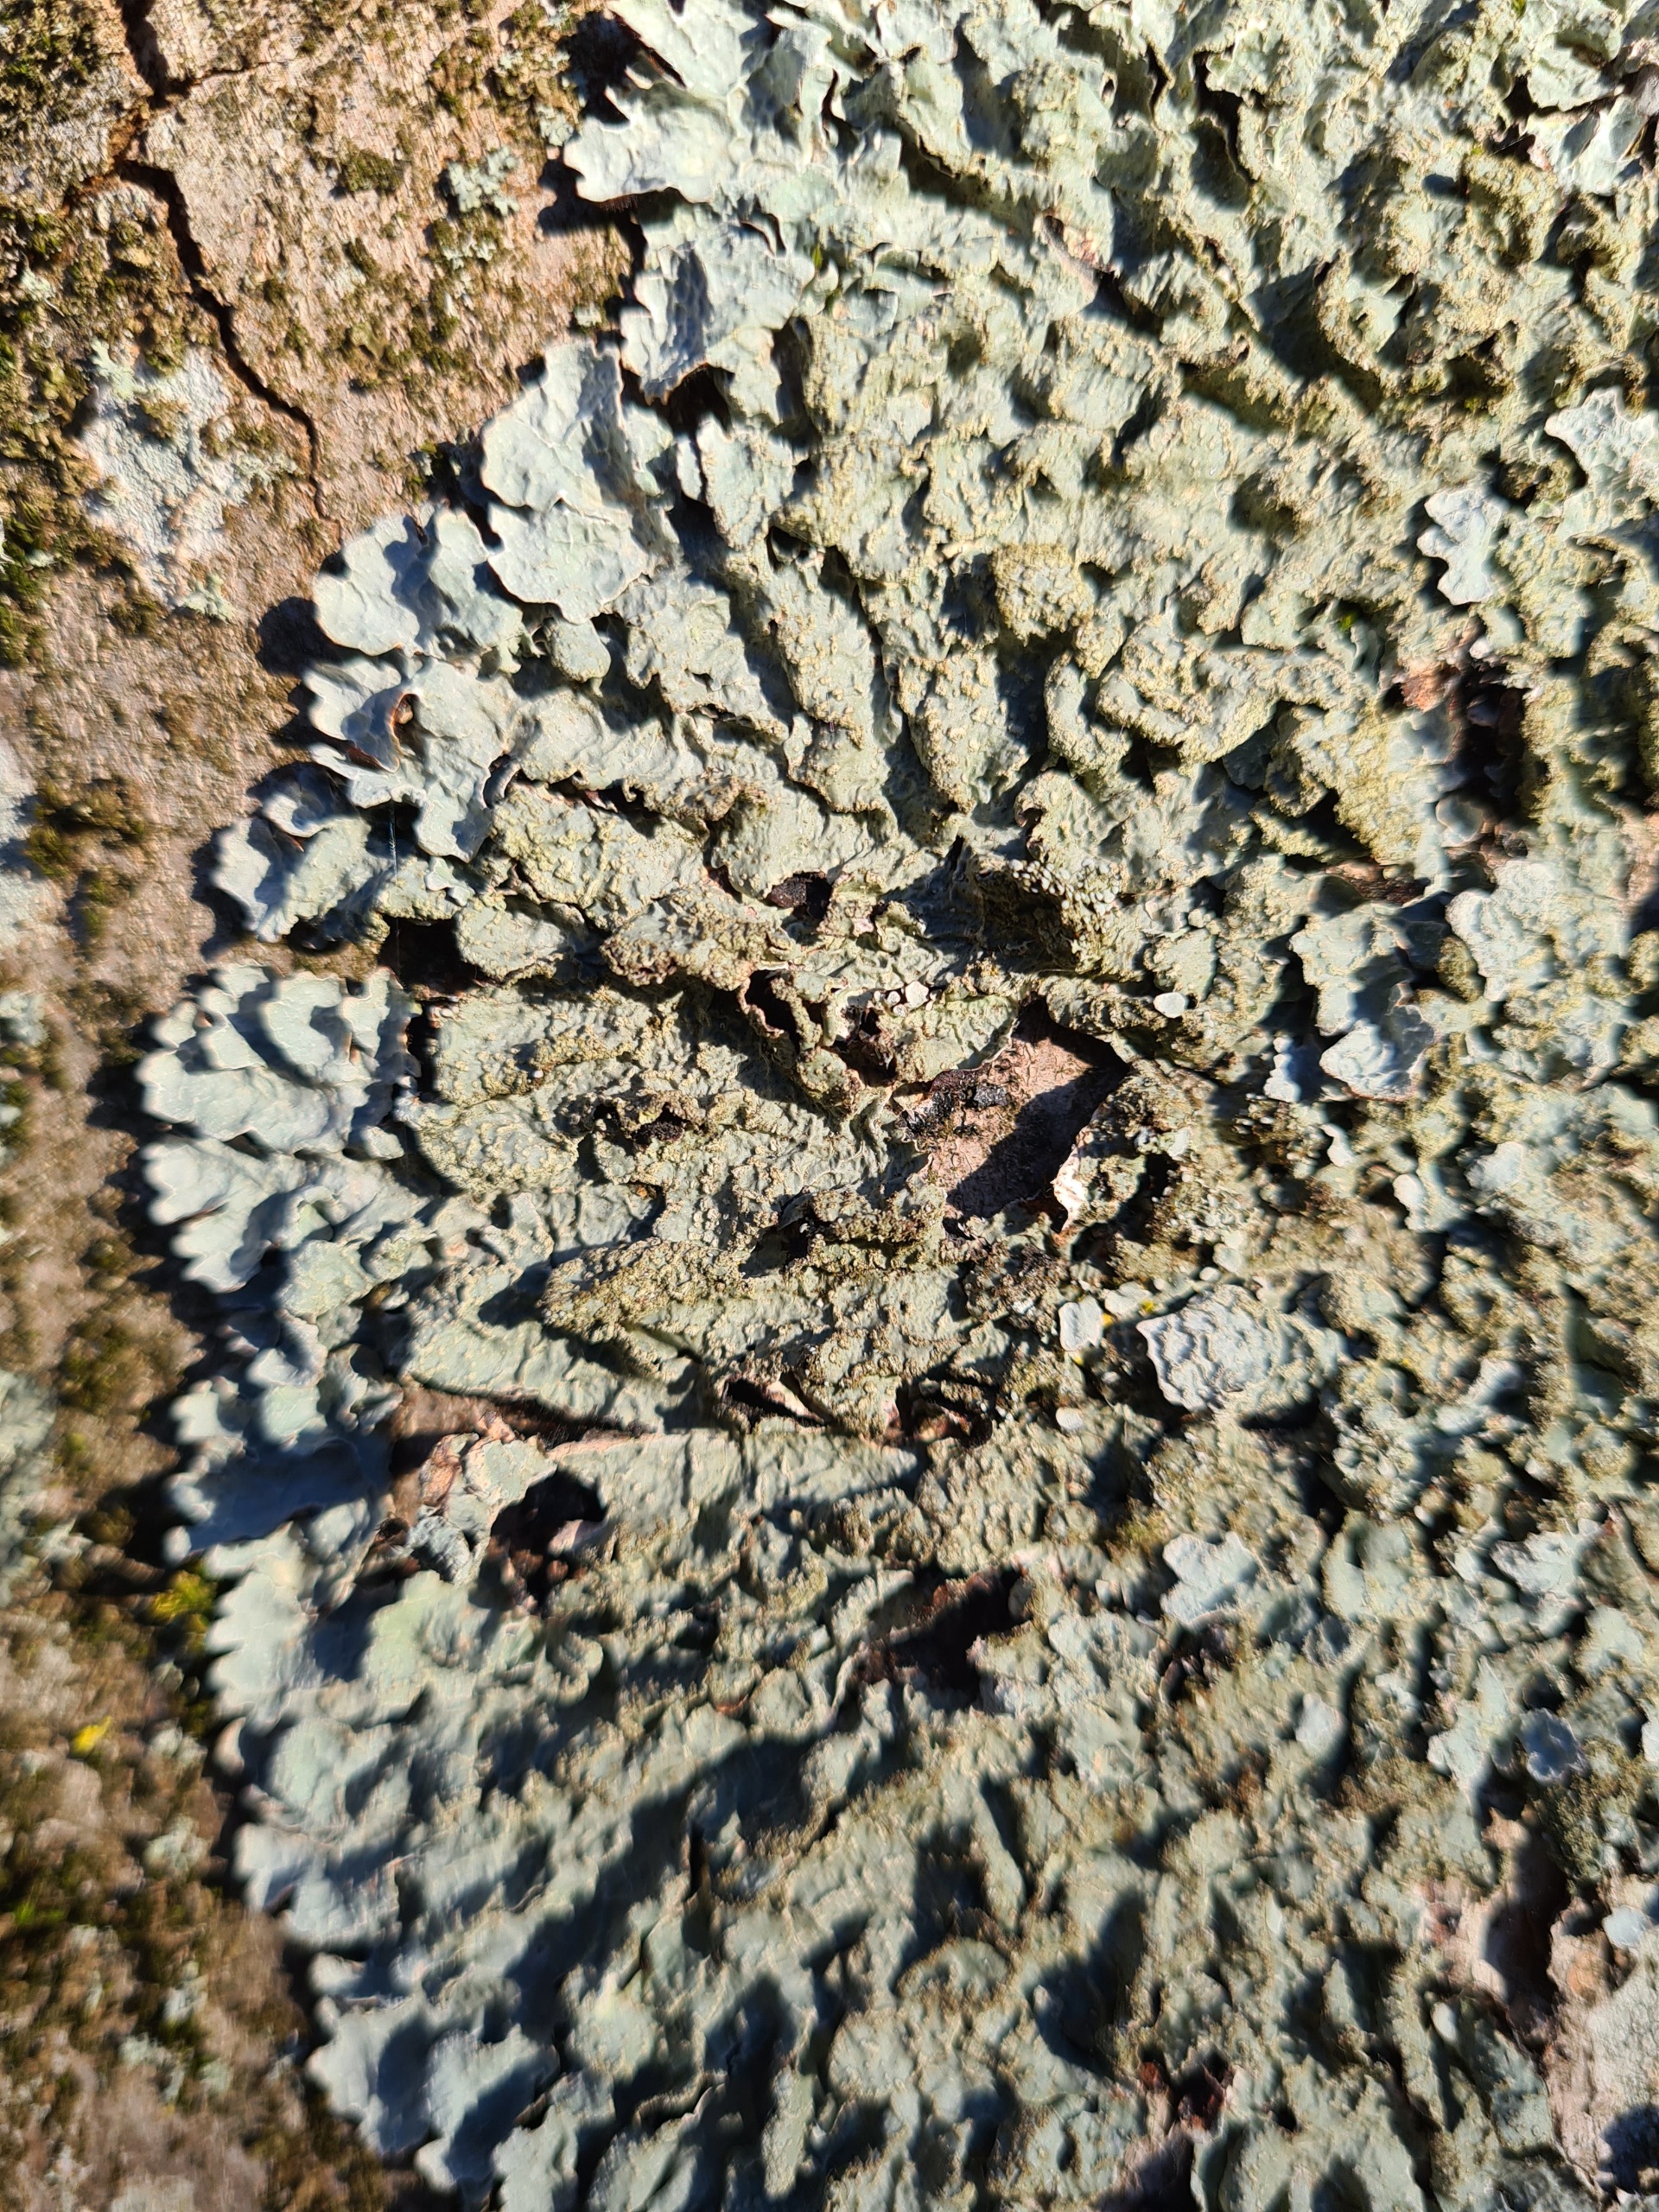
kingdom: Fungi
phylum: Ascomycota
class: Lecanoromycetes
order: Lecanorales
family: Parmeliaceae
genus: Parmelia
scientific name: Parmelia sulcata
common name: Rynket skållav
